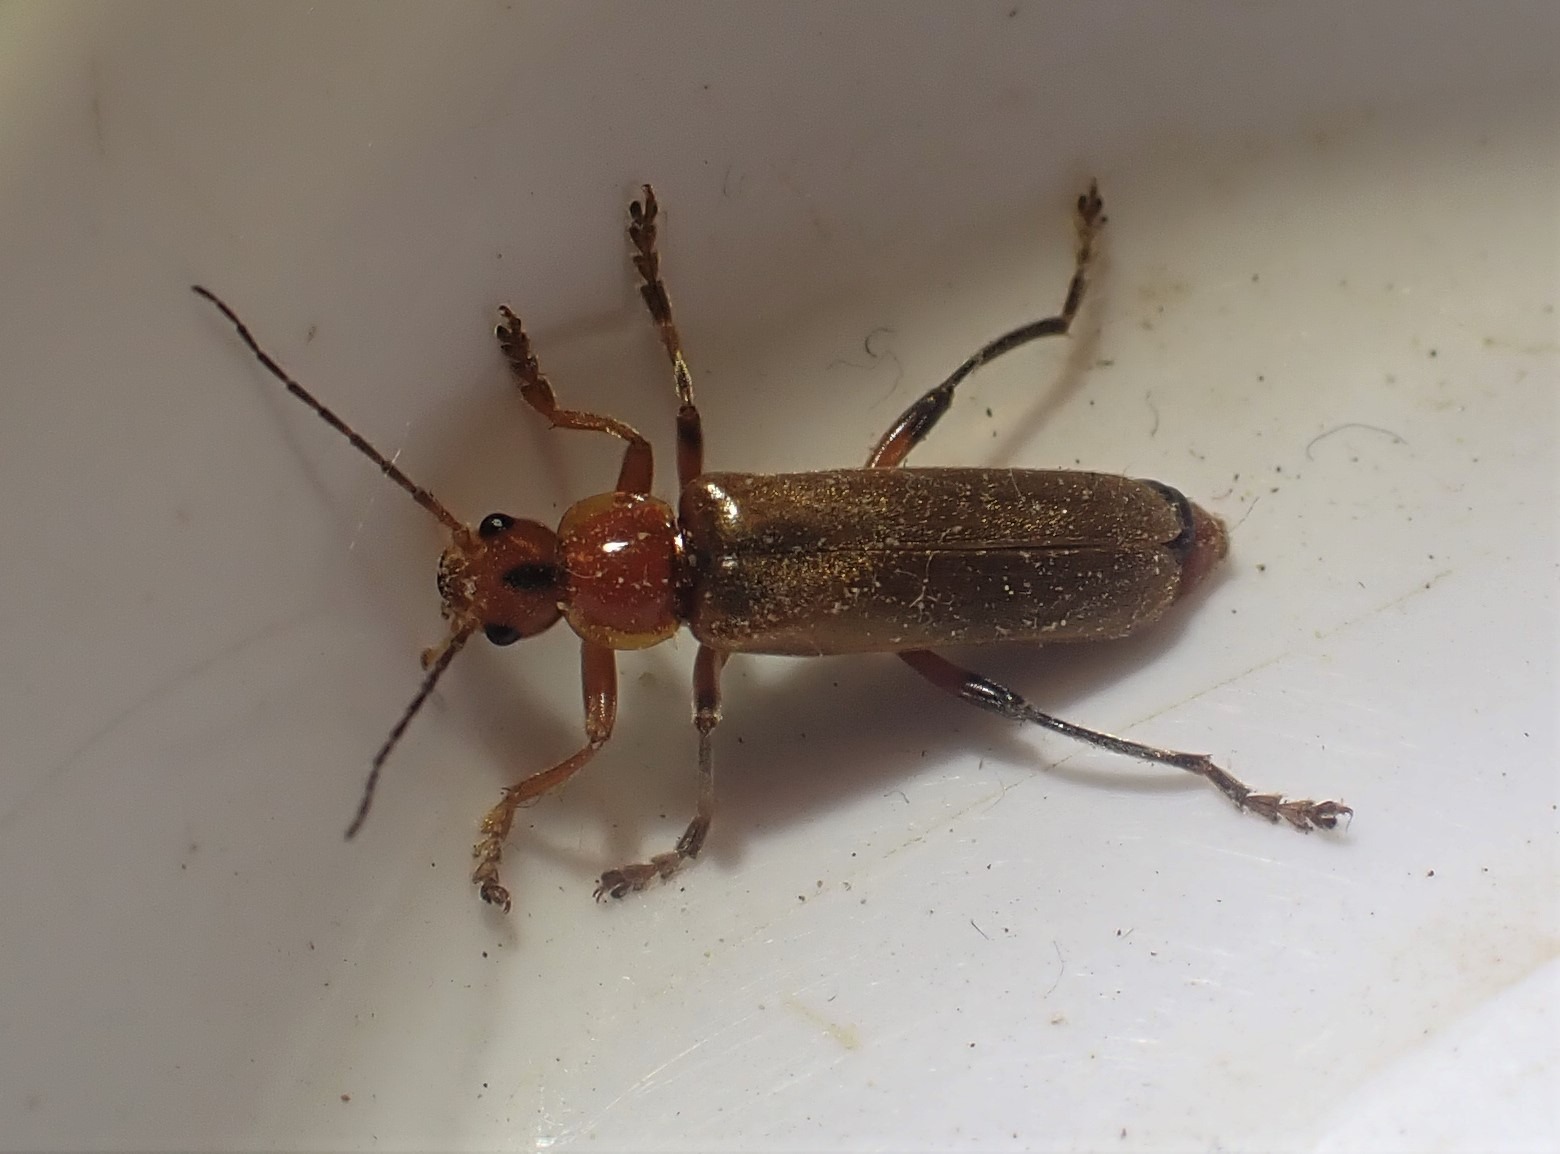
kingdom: Animalia
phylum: Arthropoda
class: Insecta
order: Coleoptera
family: Cantharidae
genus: Cantharis
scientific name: Cantharis livida
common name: Gul blødvinge
